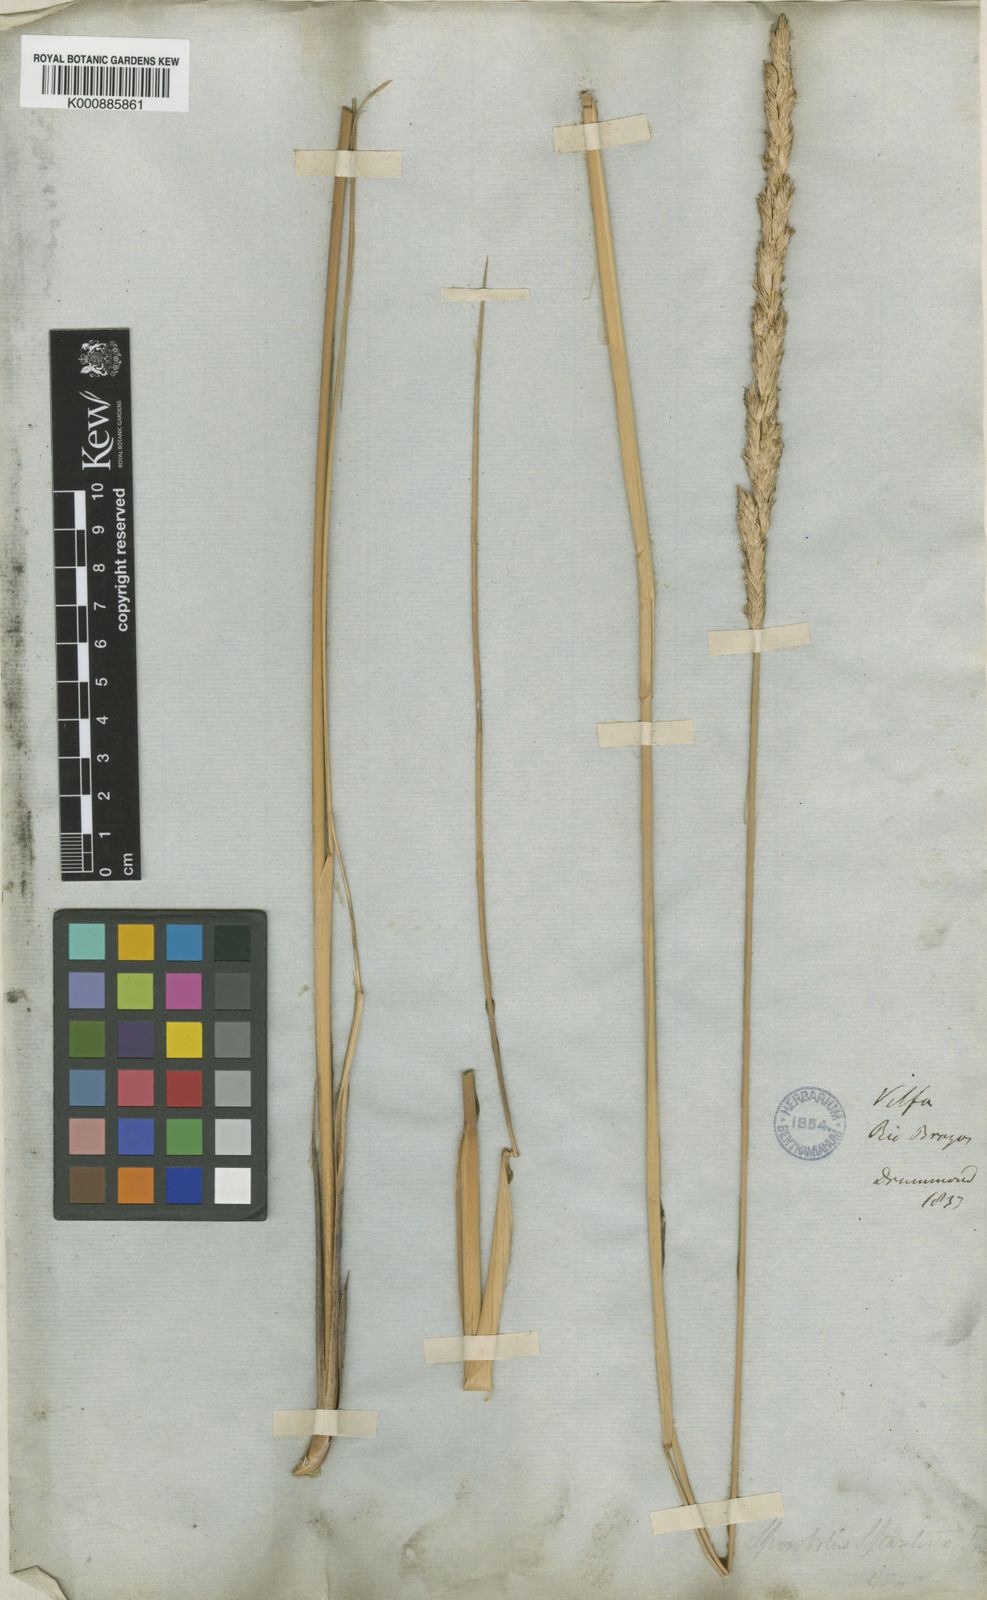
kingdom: Animalia
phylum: Mollusca
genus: Spartina
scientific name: Spartina
